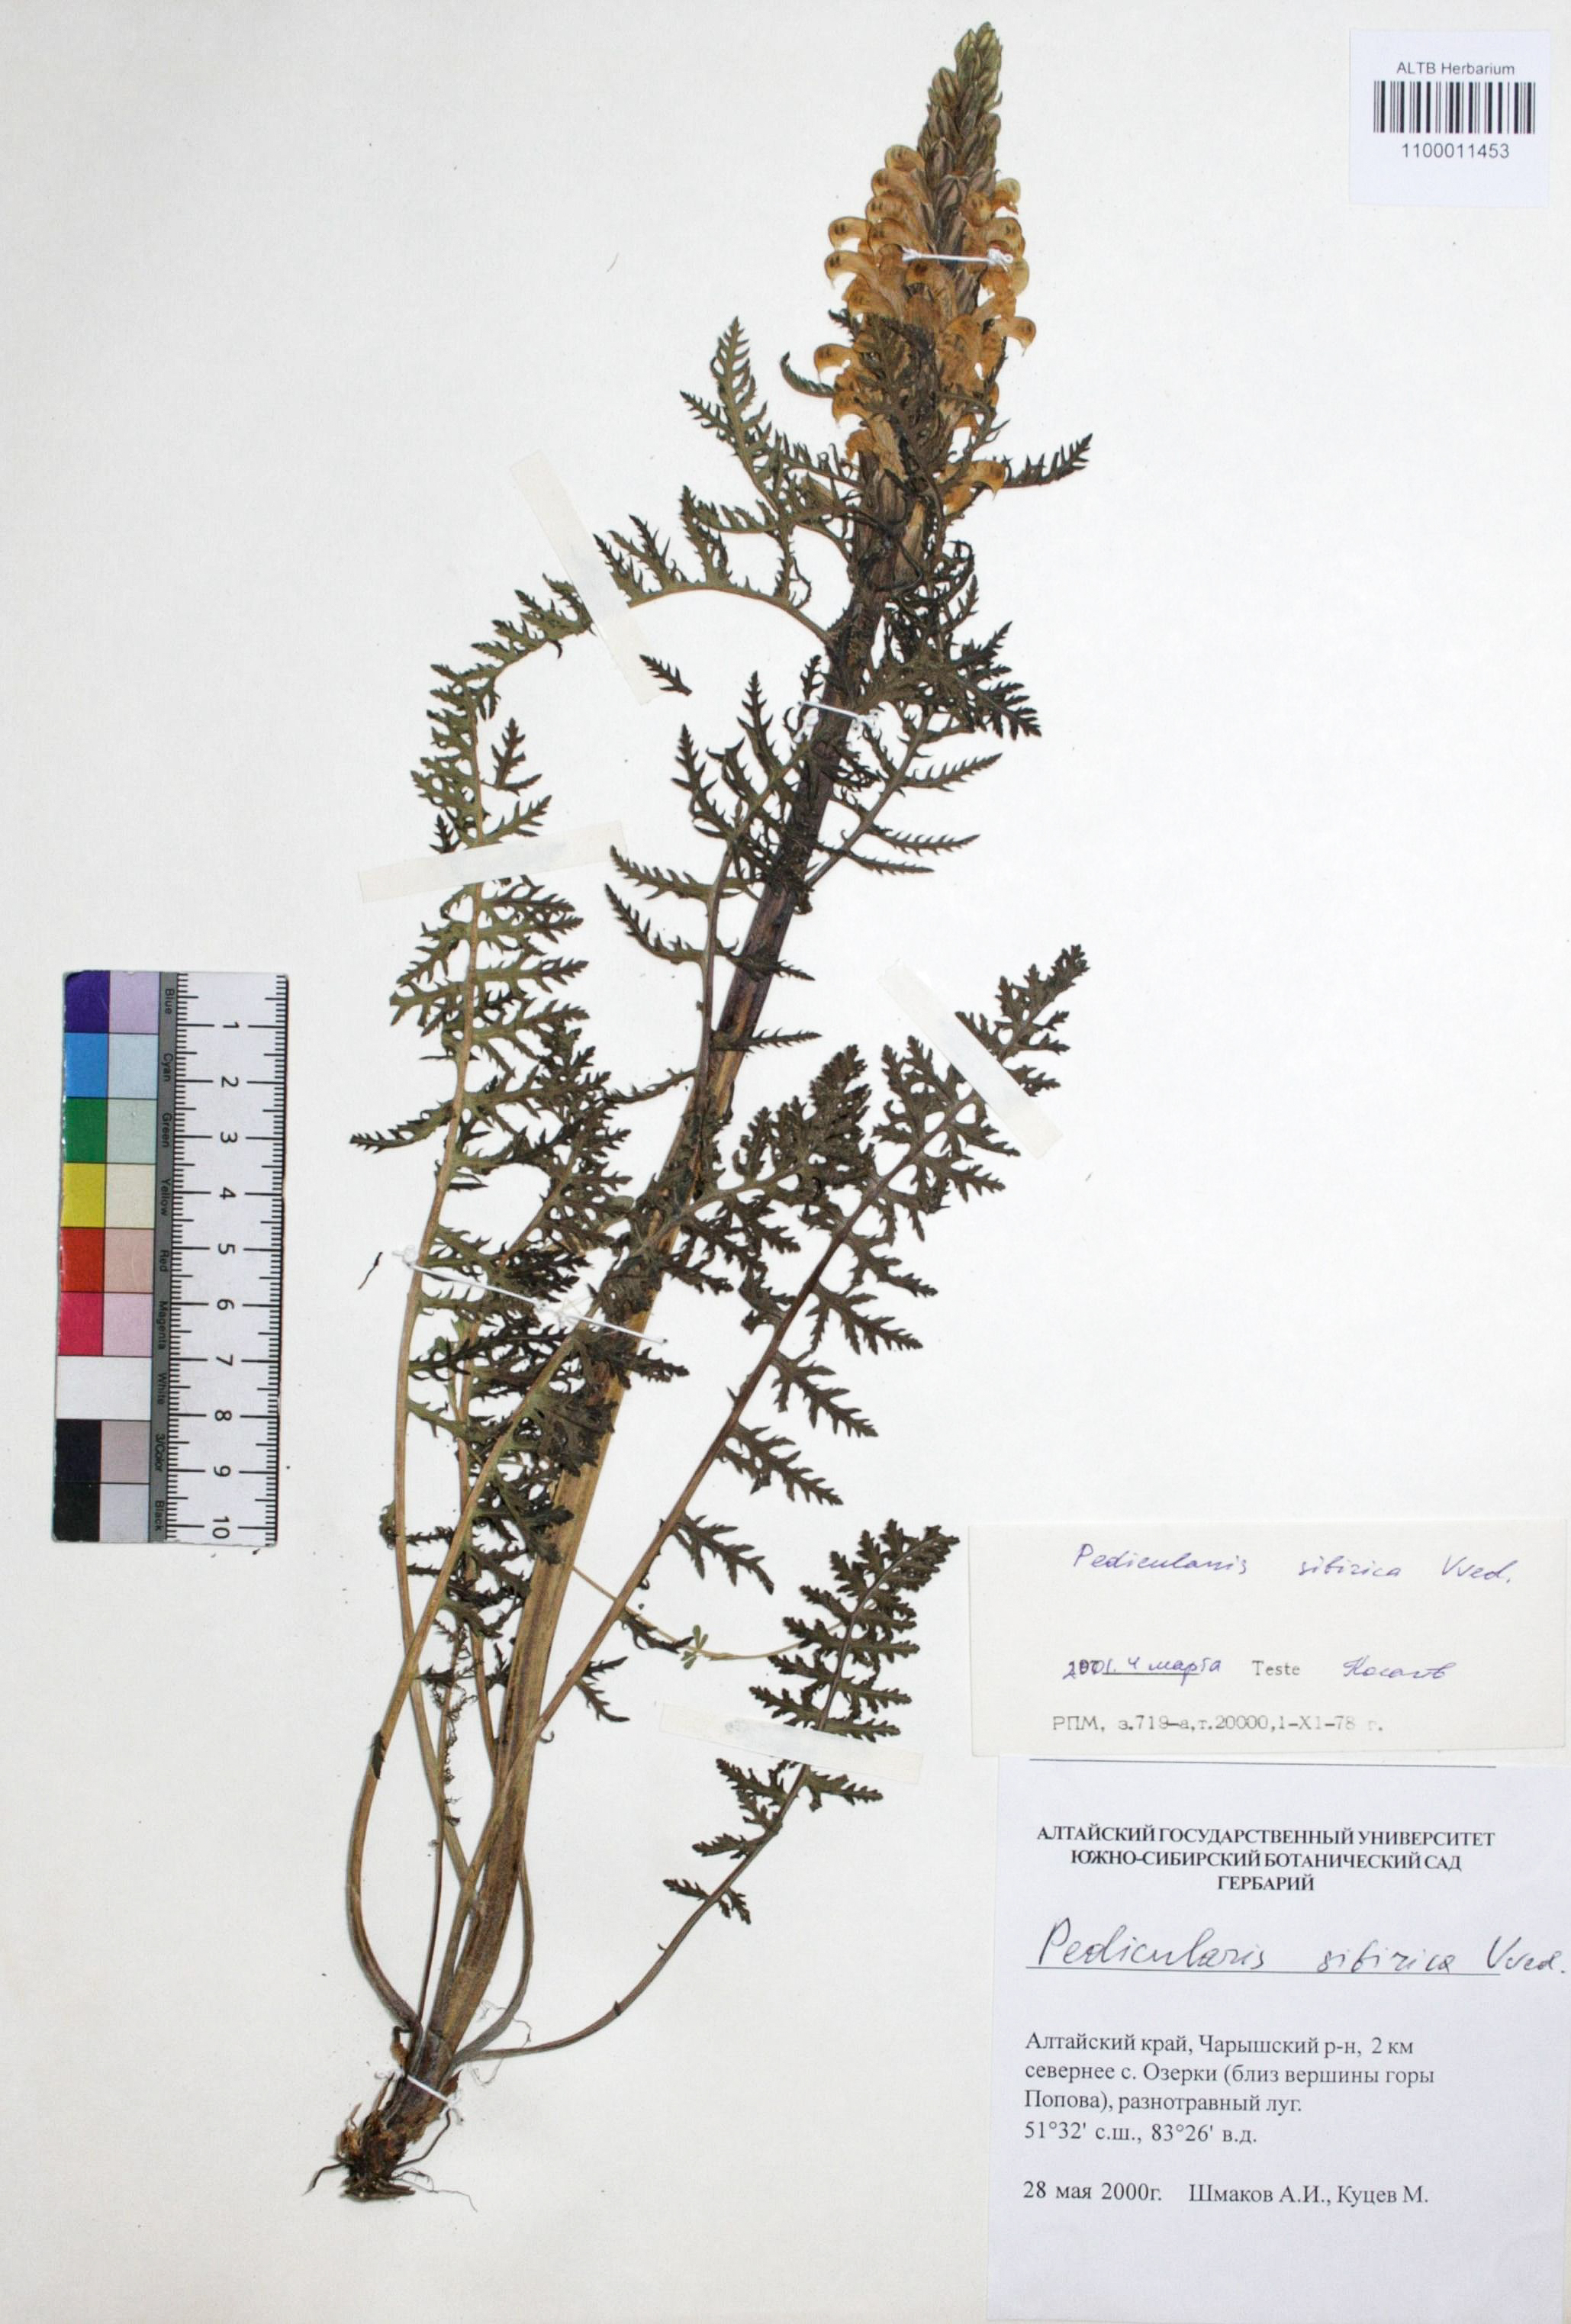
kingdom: Plantae
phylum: Tracheophyta
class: Magnoliopsida
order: Lamiales
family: Orobanchaceae
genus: Pedicularis
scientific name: Pedicularis sibirica
